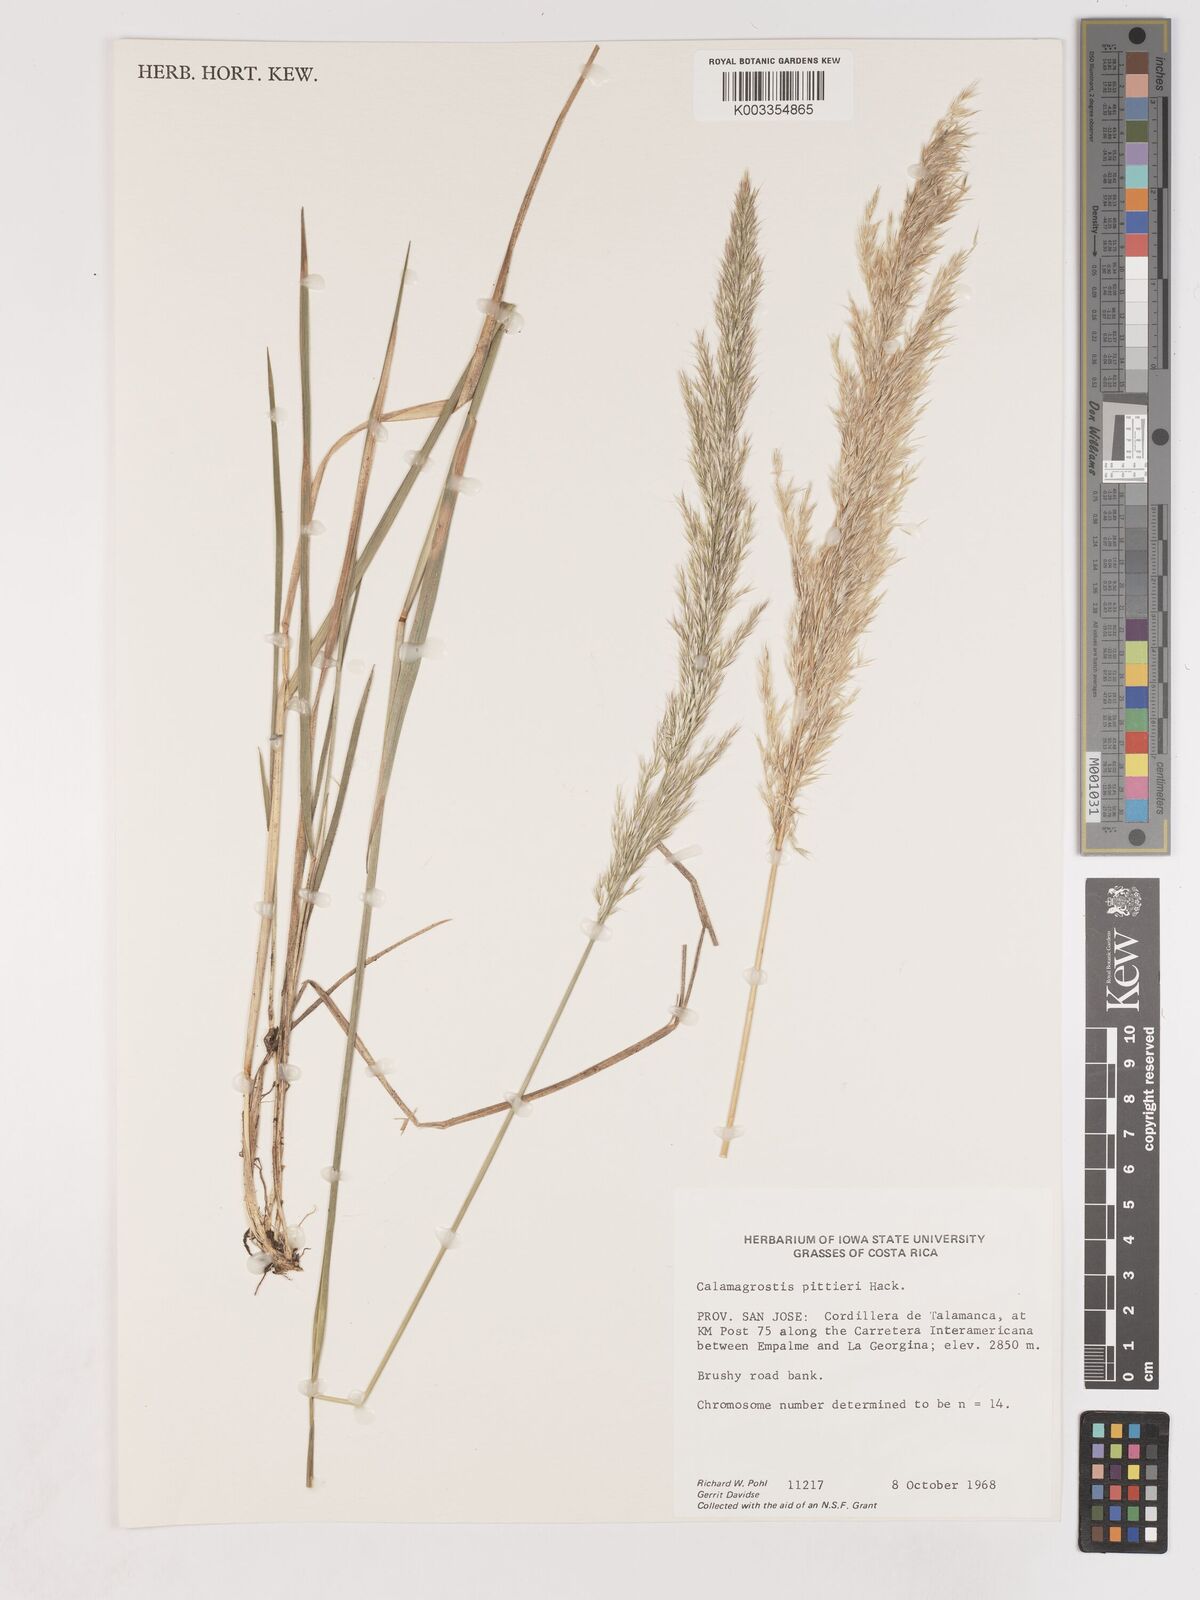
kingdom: Plantae
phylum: Tracheophyta
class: Liliopsida
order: Poales
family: Poaceae
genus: Calamagrostis
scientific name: Calamagrostis
